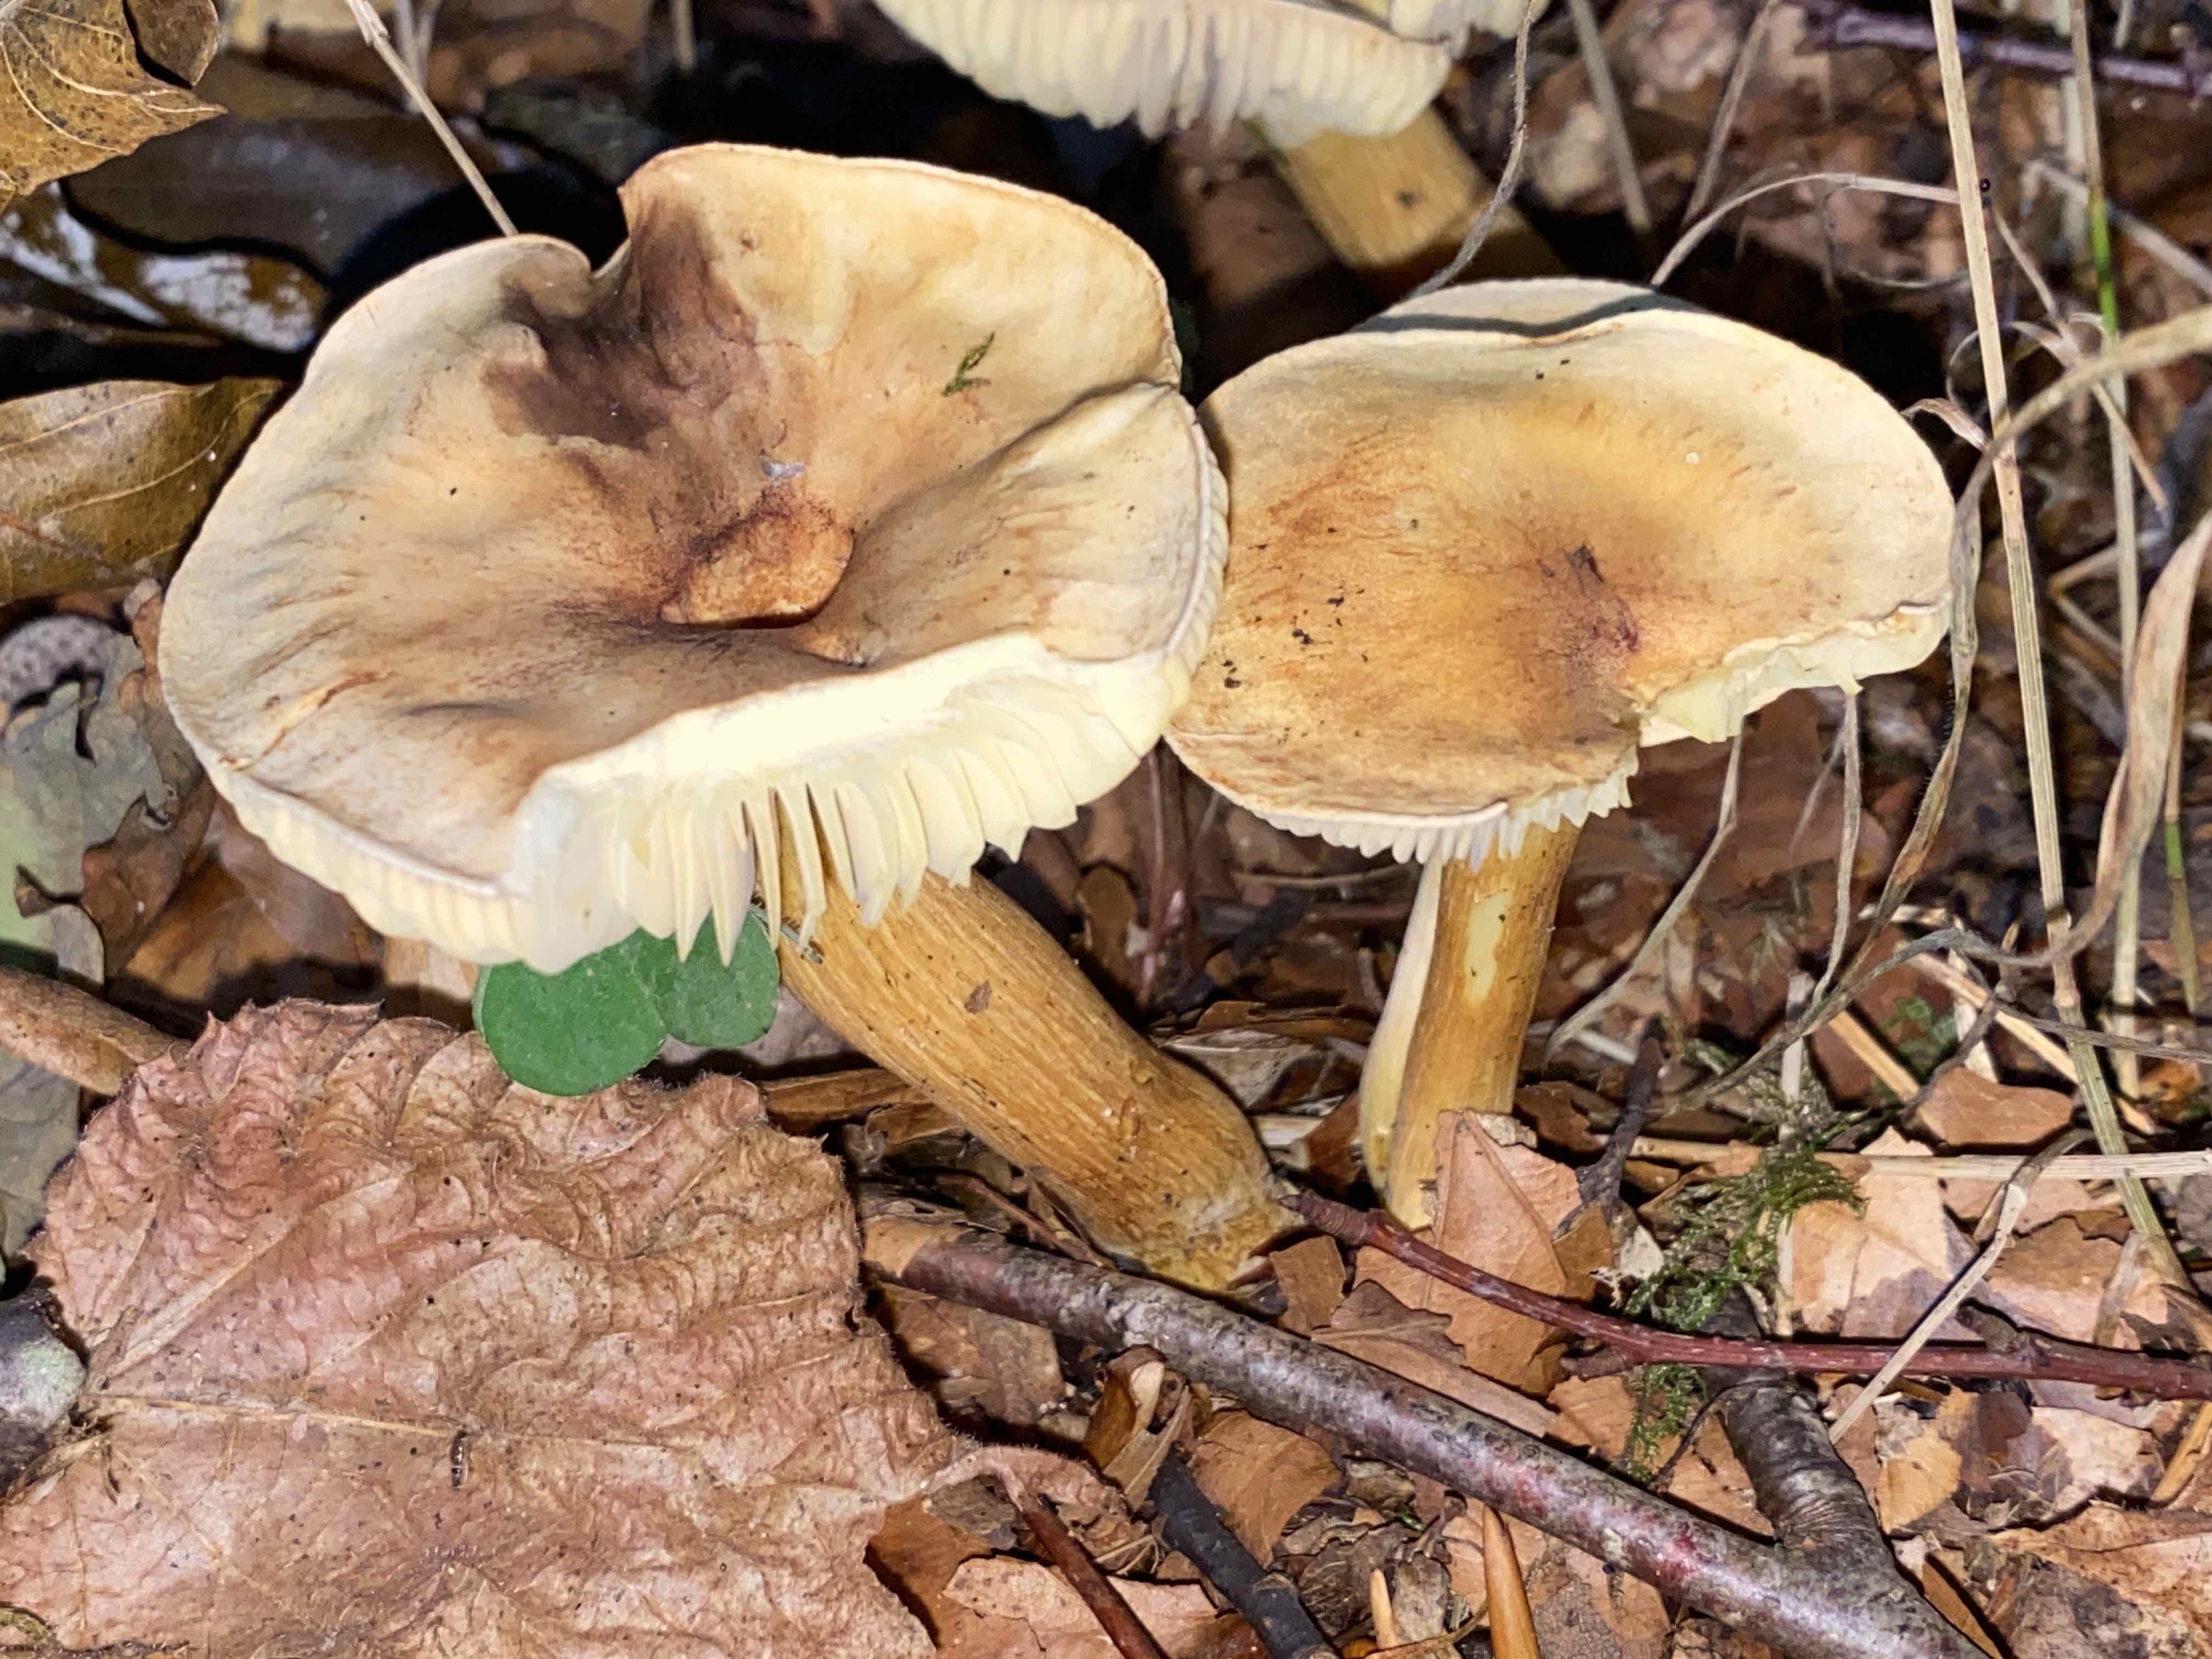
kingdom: Fungi
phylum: Basidiomycota
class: Agaricomycetes
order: Agaricales
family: Tricholomataceae
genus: Tricholoma
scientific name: Tricholoma sulphureum
